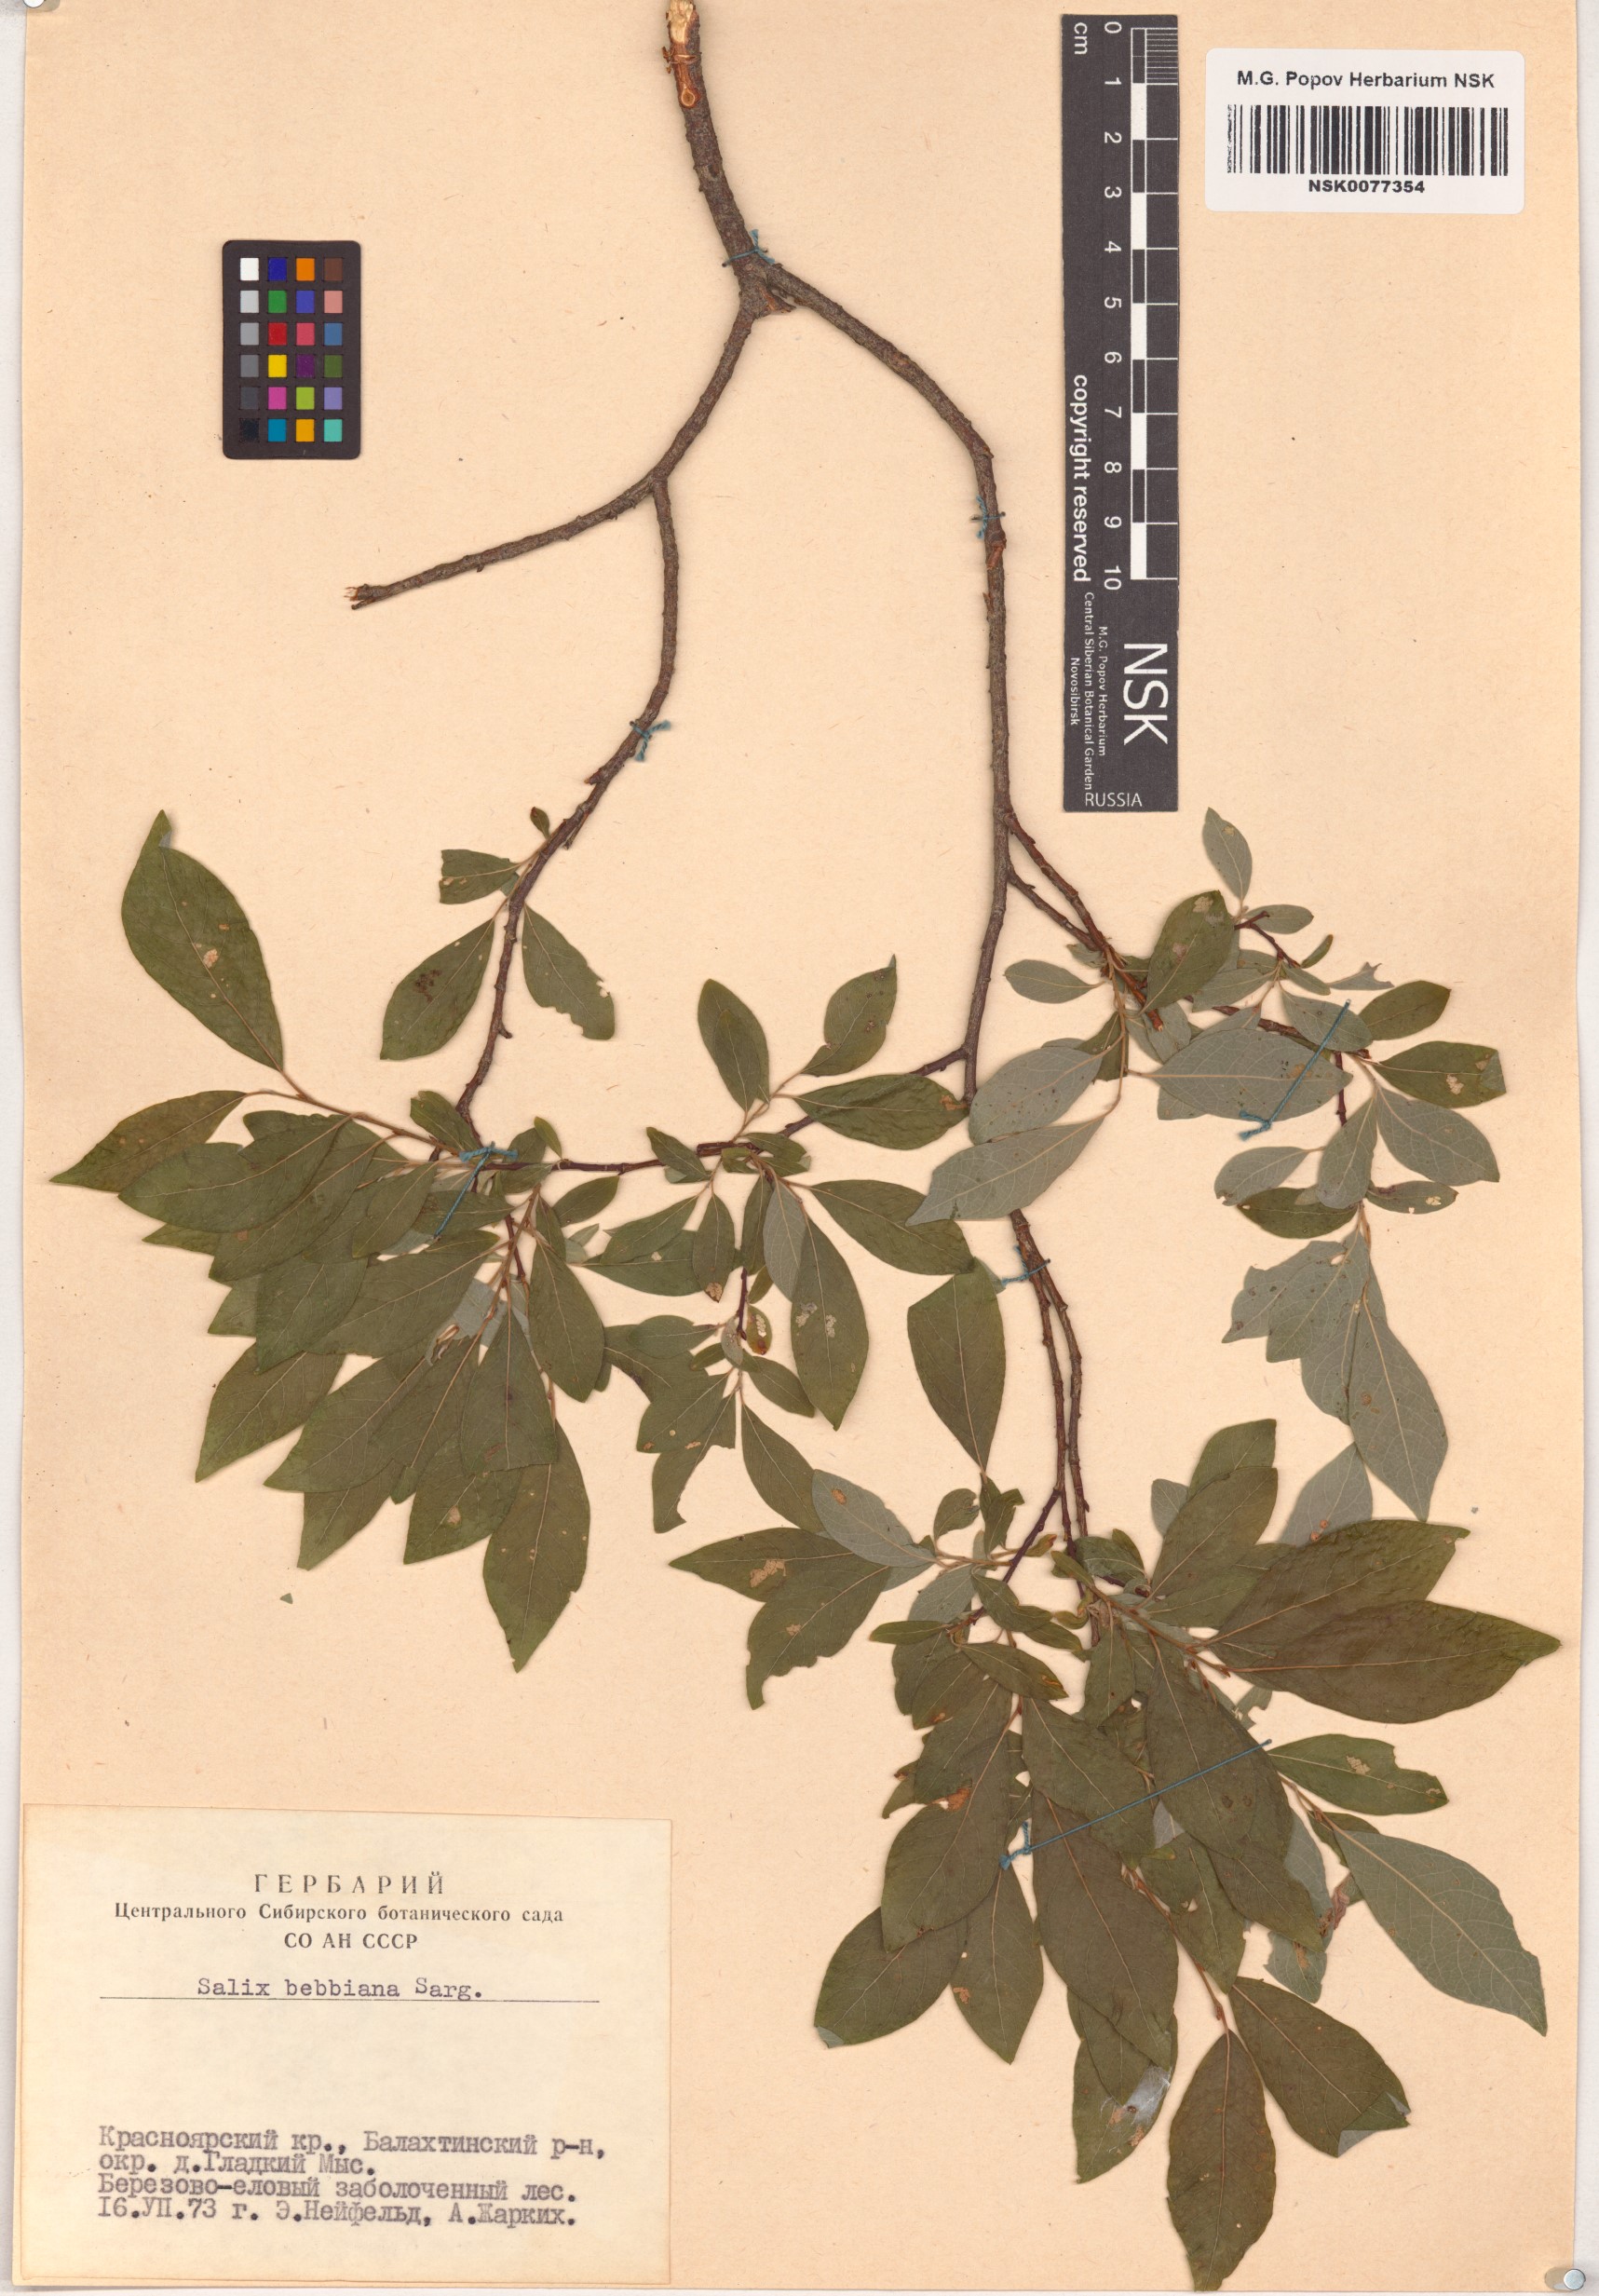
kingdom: Plantae
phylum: Tracheophyta
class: Magnoliopsida
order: Malpighiales
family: Salicaceae
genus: Salix
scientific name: Salix bebbiana
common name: Bebb's willow
